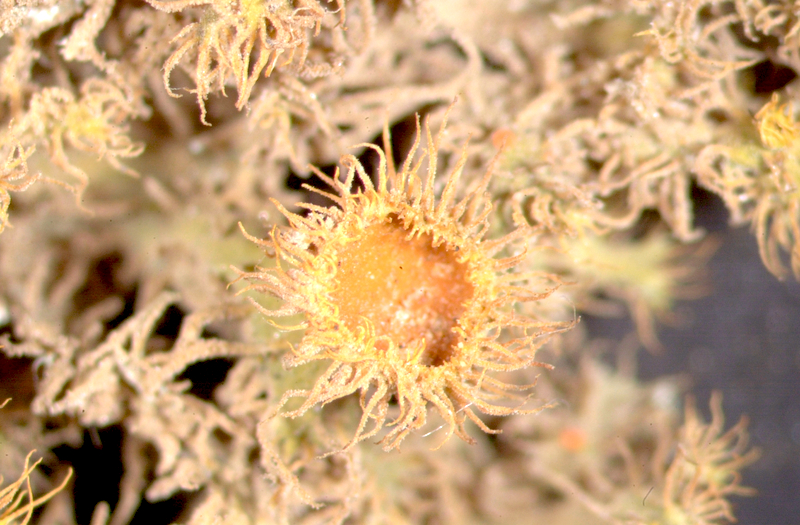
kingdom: Fungi
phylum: Ascomycota
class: Lecanoromycetes
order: Teloschistales
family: Teloschistaceae
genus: Niorma
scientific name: Niorma chrysophthalma
